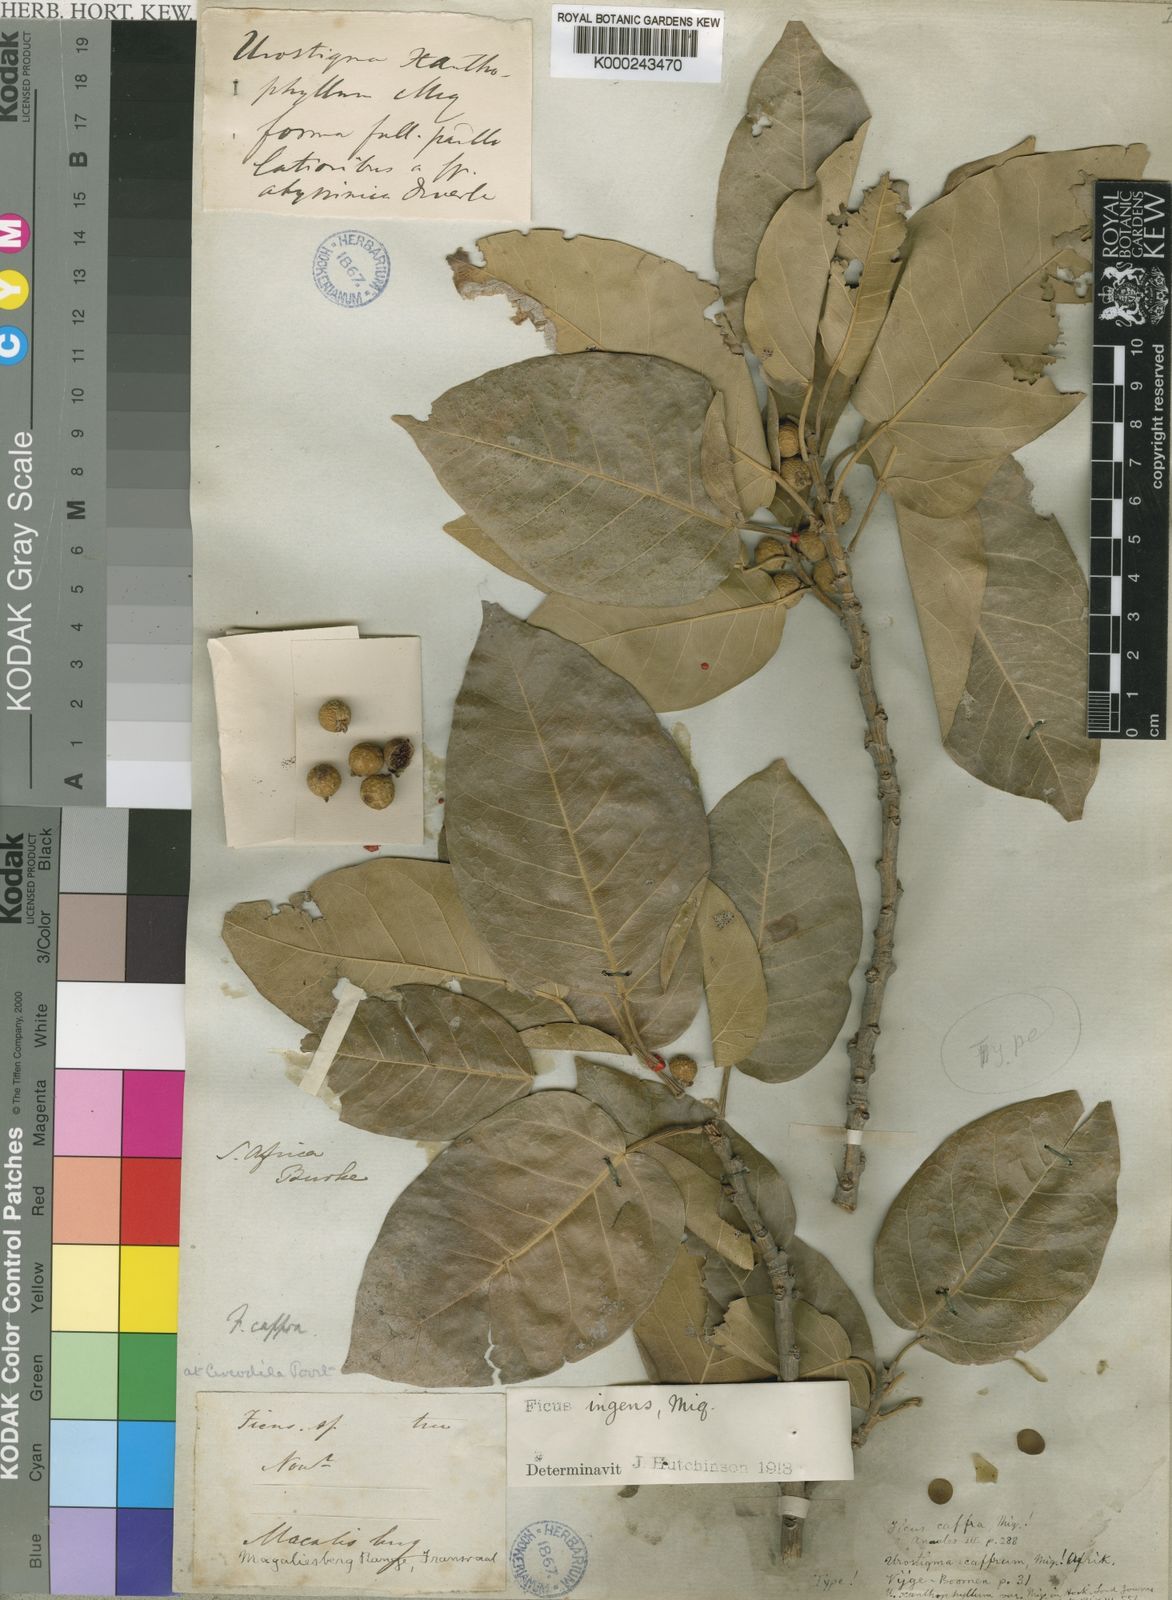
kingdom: Plantae
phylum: Tracheophyta
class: Magnoliopsida
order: Rosales
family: Moraceae
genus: Ficus
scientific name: Ficus ingens
